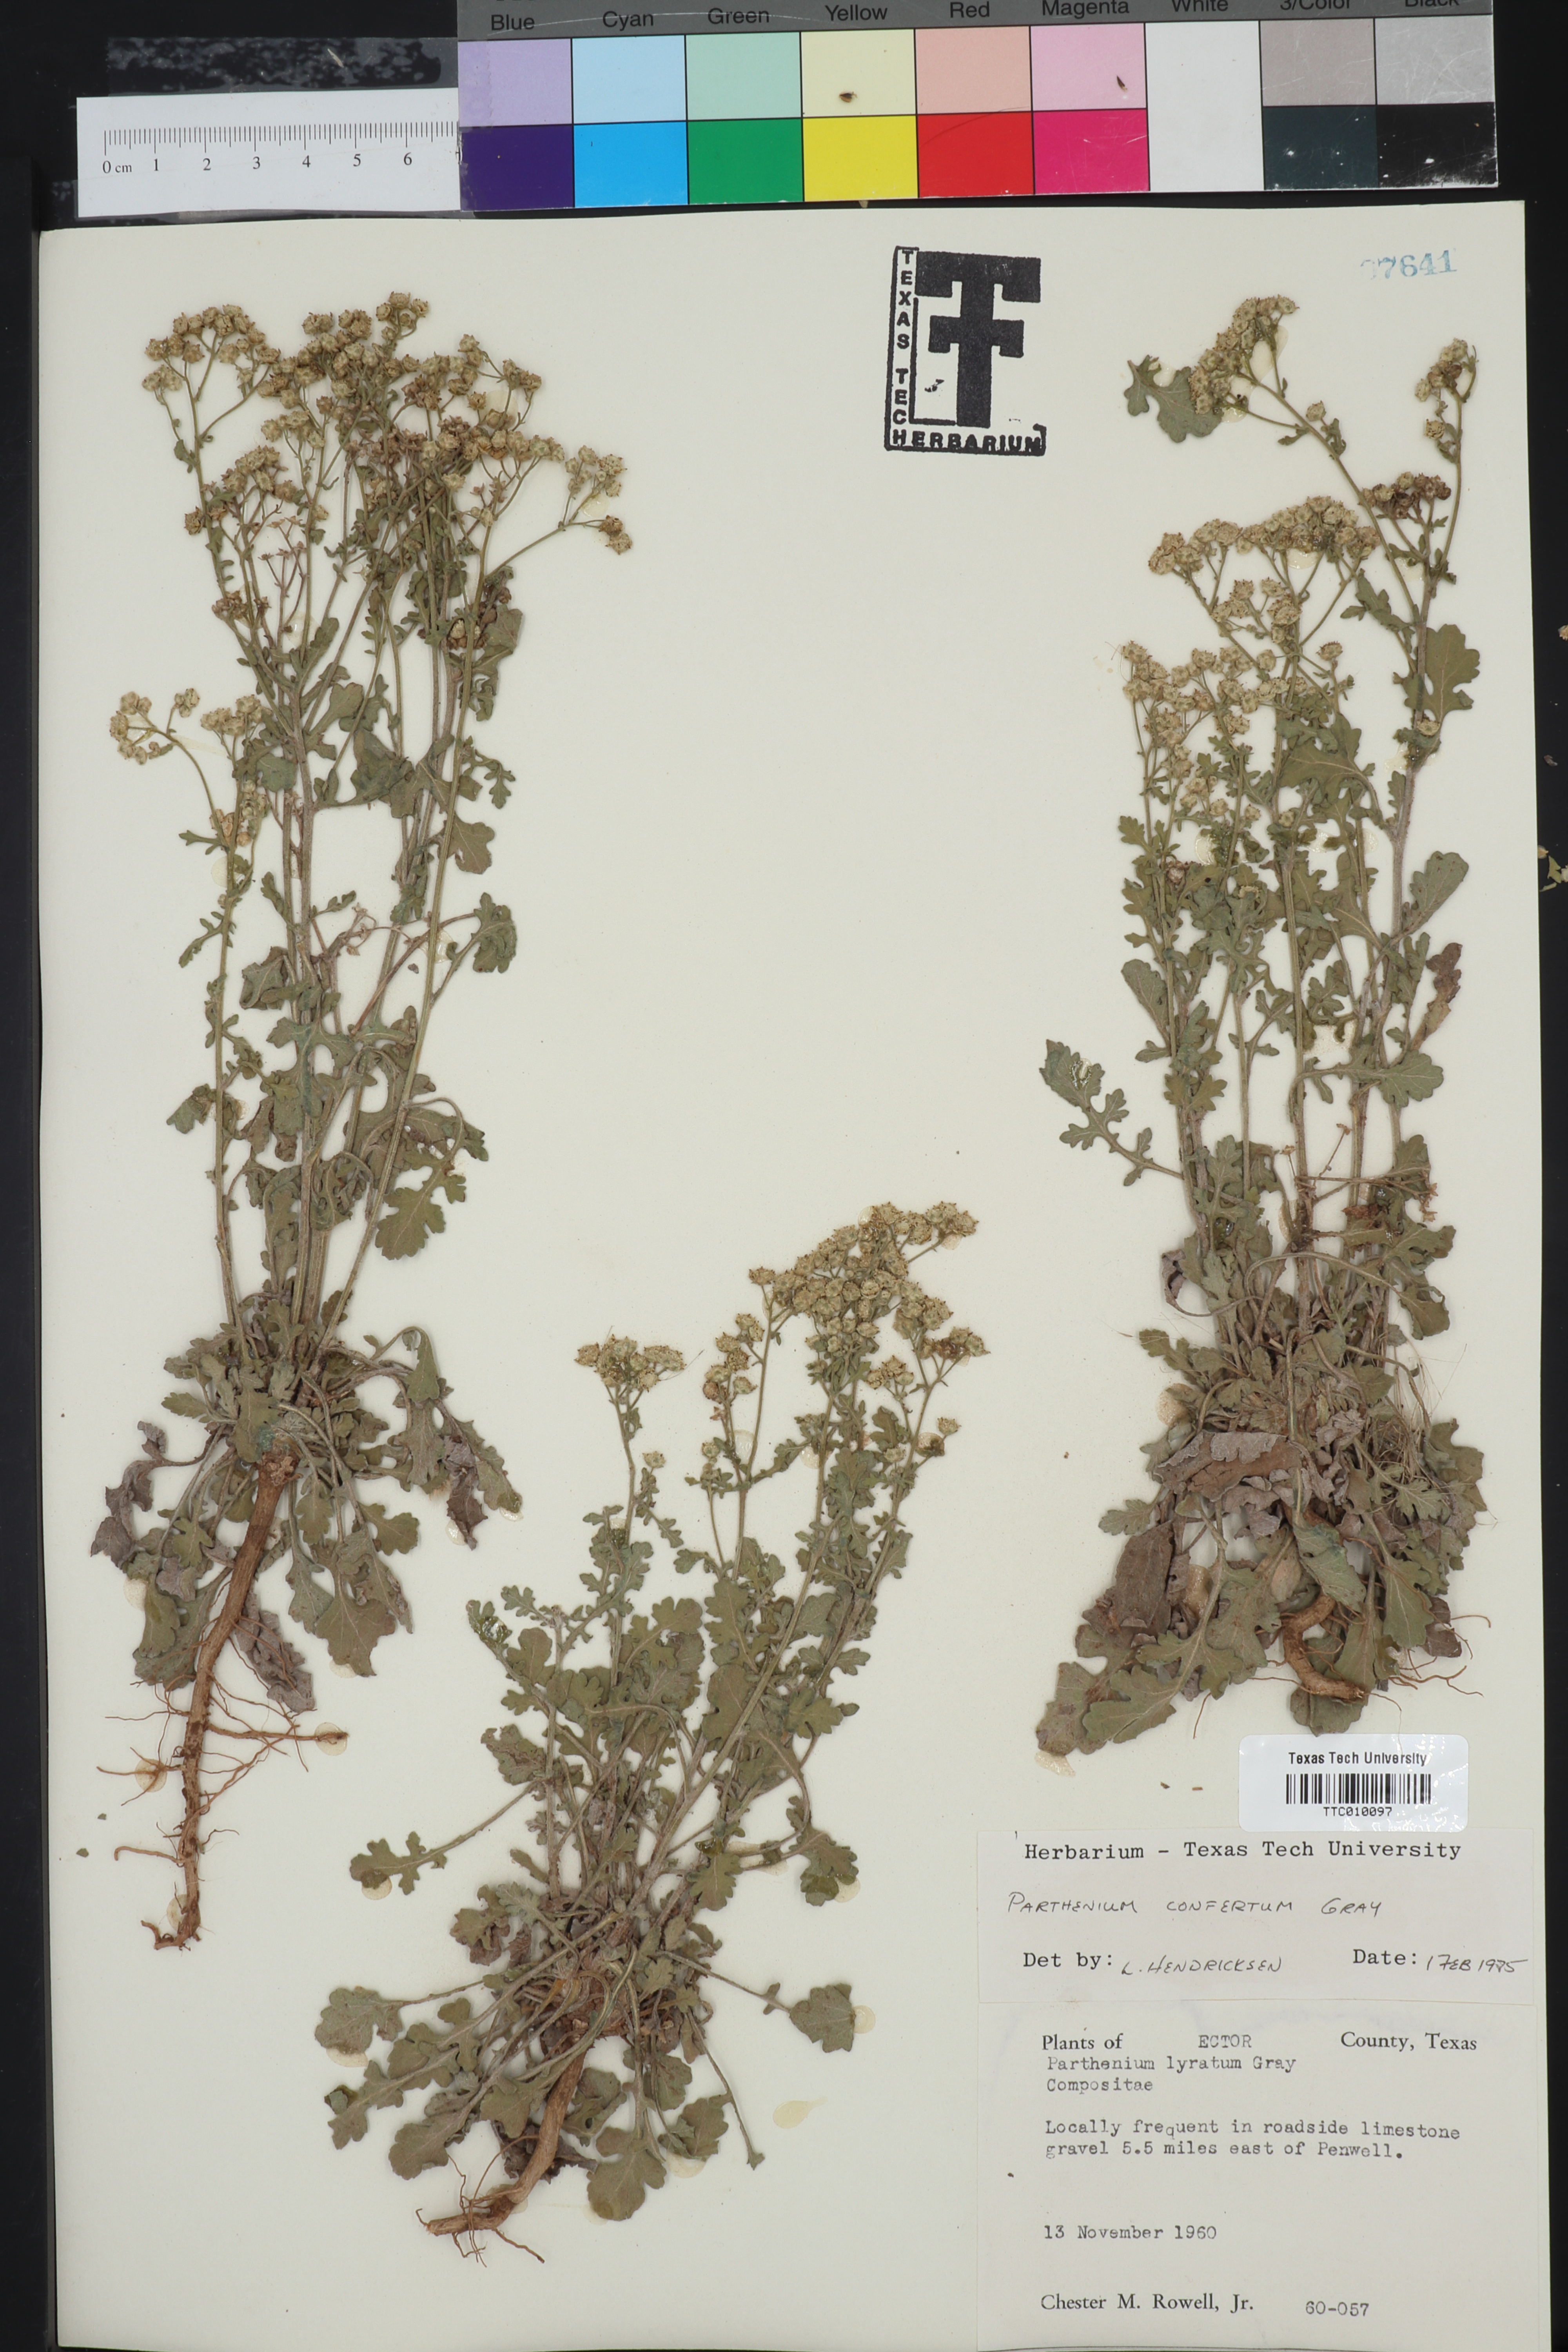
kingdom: Plantae
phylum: Tracheophyta
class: Magnoliopsida
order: Asterales
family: Asteraceae
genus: Parthenium
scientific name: Parthenium confertum
